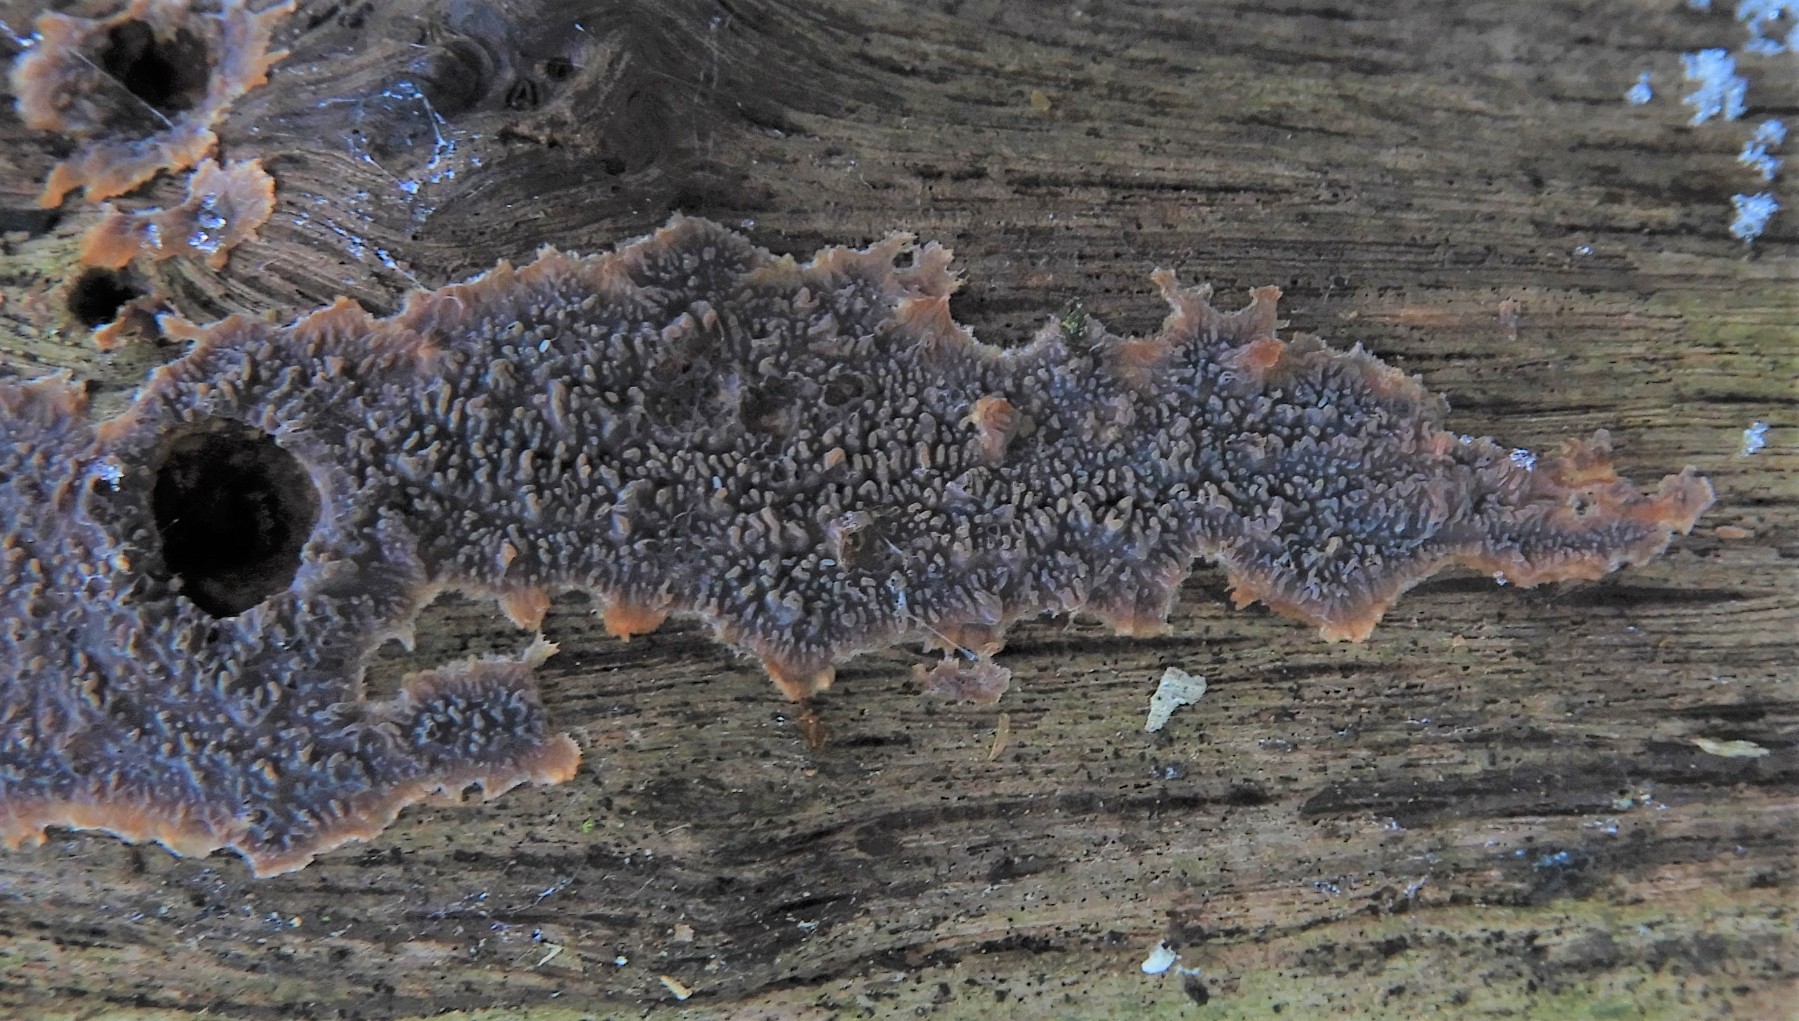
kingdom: Fungi
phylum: Basidiomycota
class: Agaricomycetes
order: Polyporales
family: Meruliaceae
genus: Phlebia
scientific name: Phlebia radiata
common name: stråle-åresvamp
